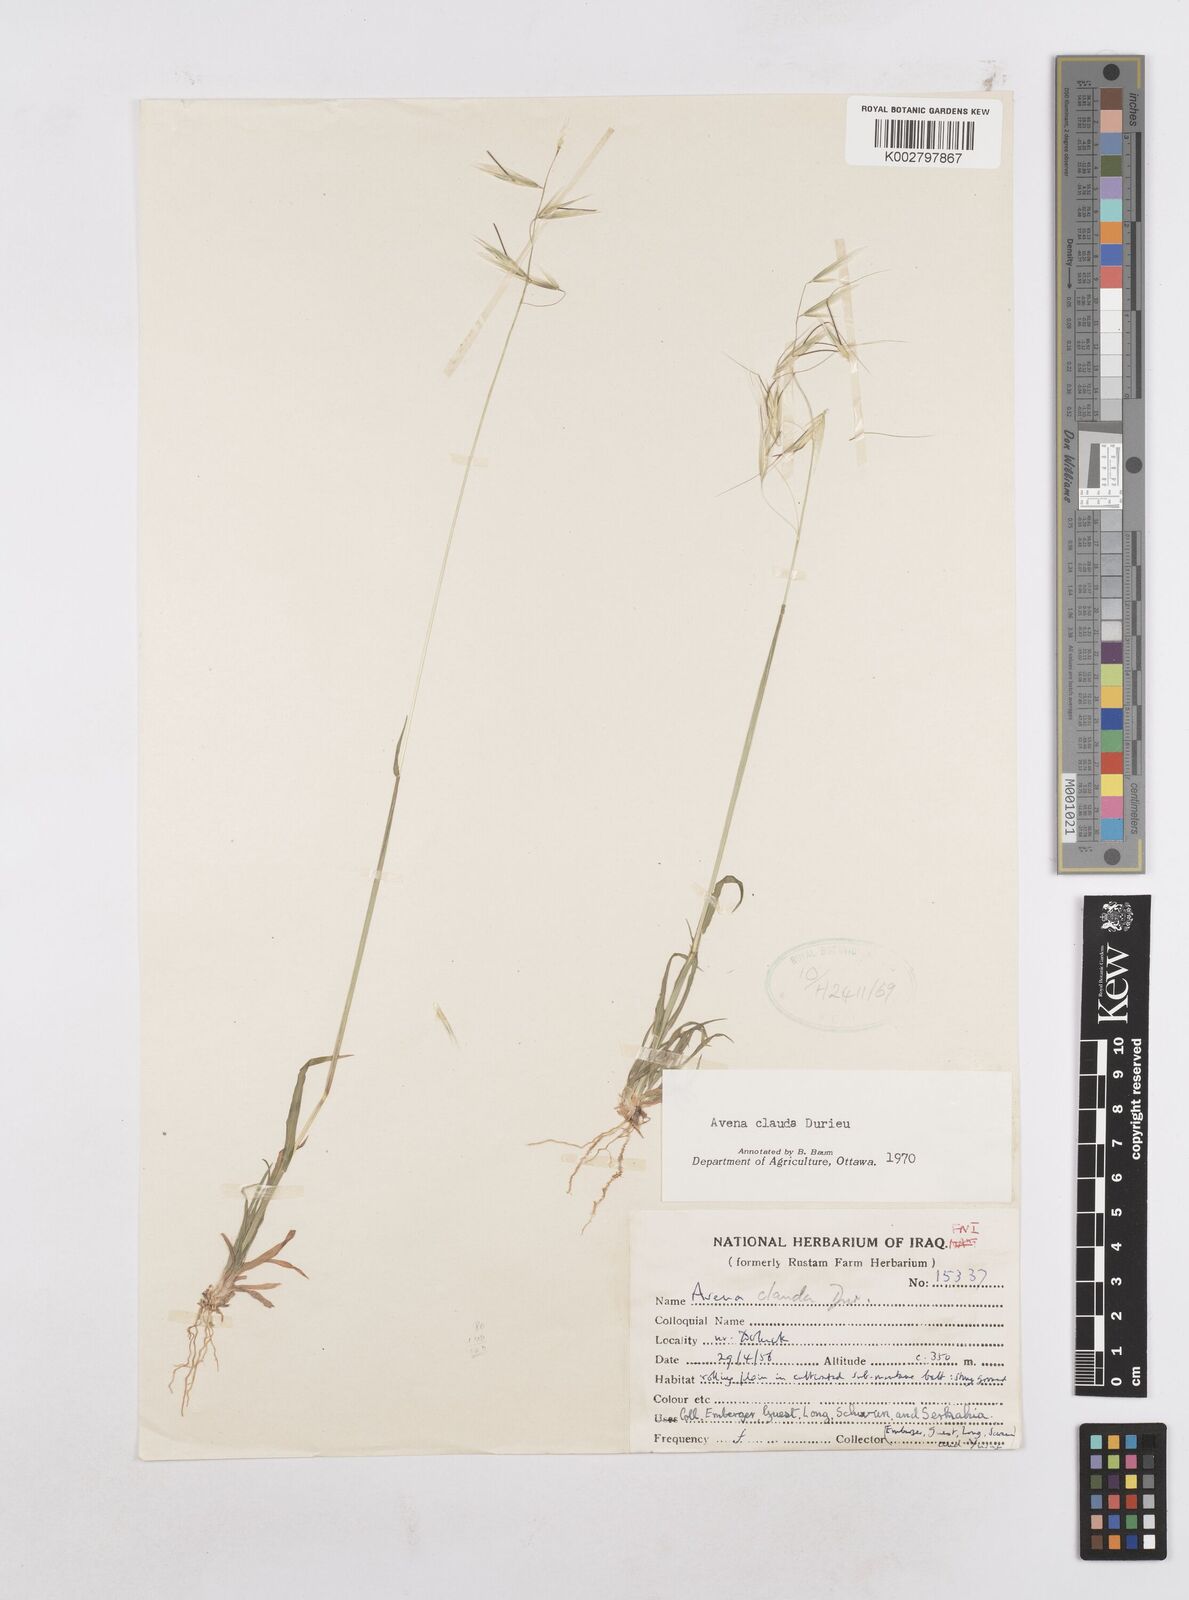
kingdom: Plantae
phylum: Tracheophyta
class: Liliopsida
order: Poales
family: Poaceae
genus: Avena
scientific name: Avena clauda
